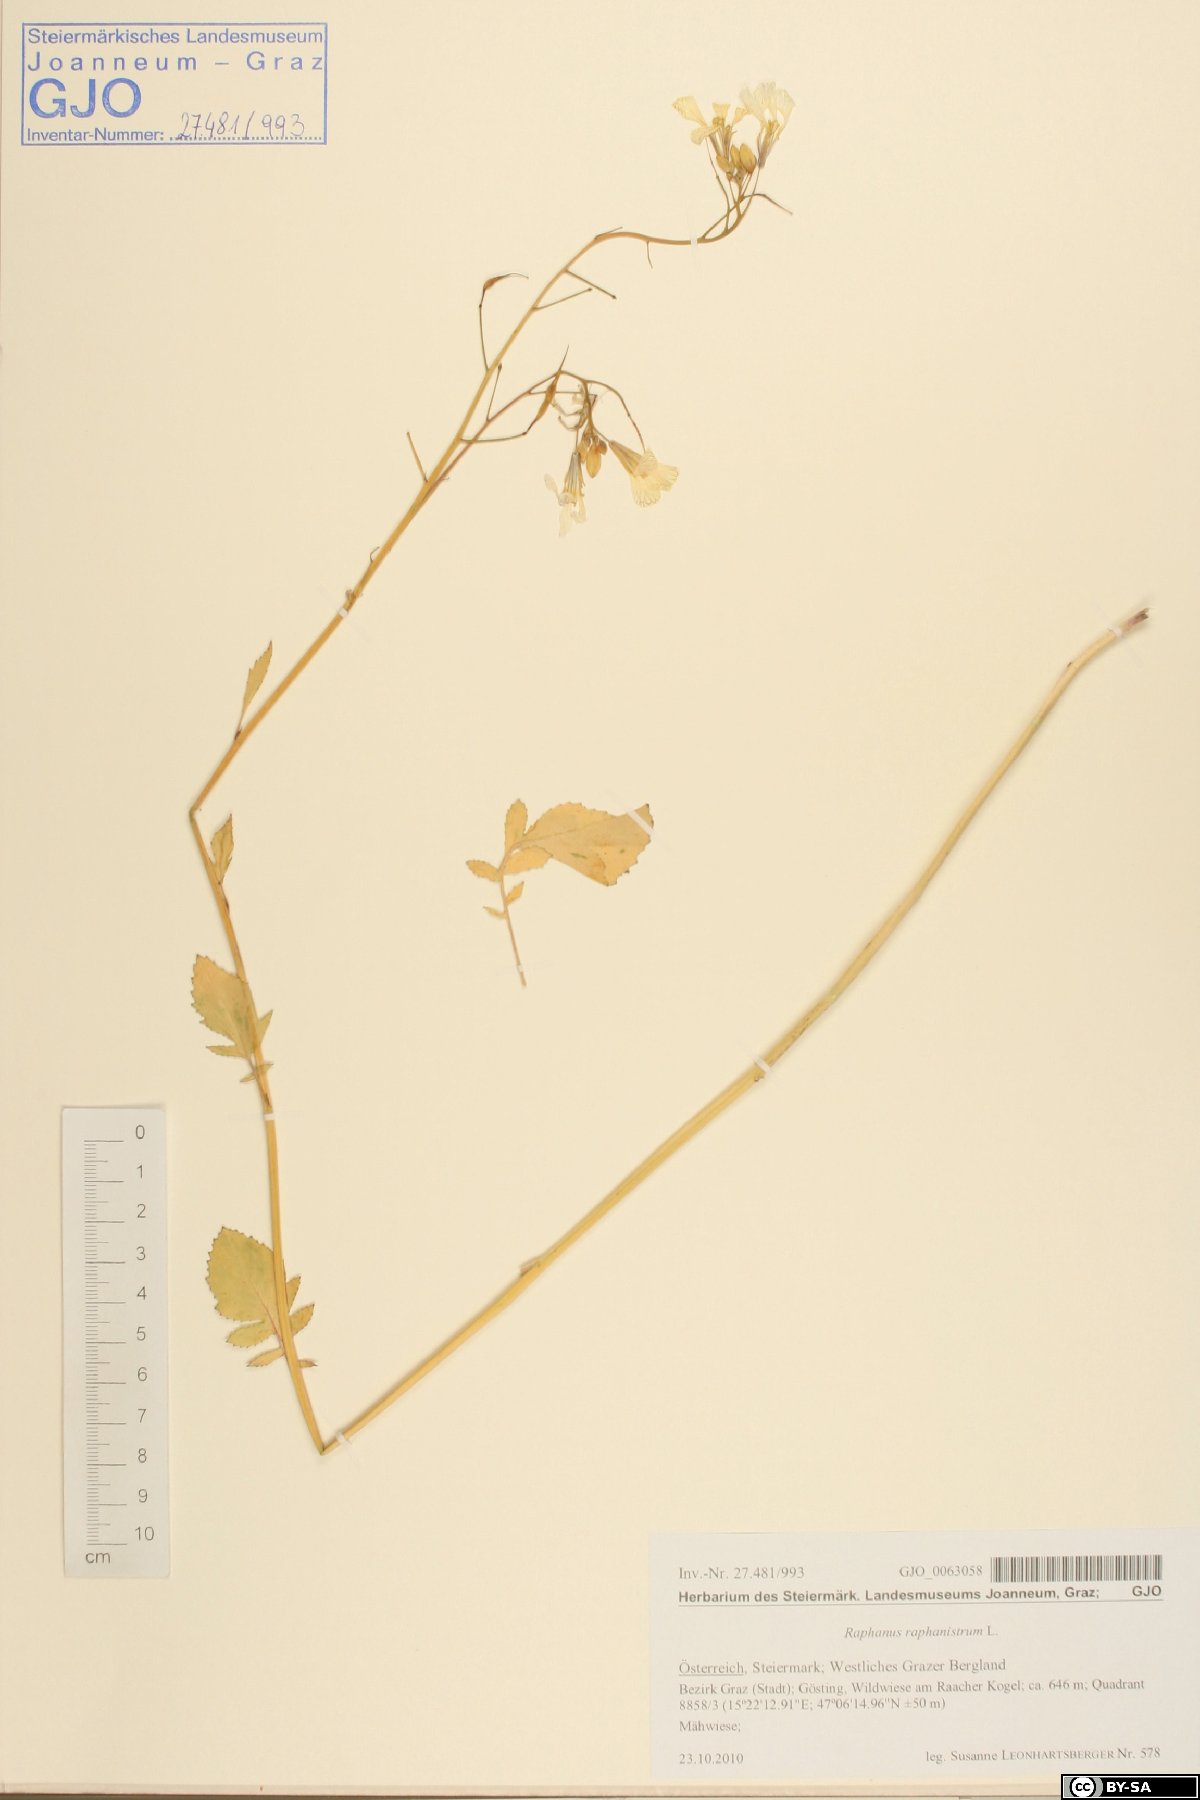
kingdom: Plantae
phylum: Tracheophyta
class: Magnoliopsida
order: Brassicales
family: Brassicaceae
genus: Raphanus
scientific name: Raphanus raphanistrum
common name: Wild radish
